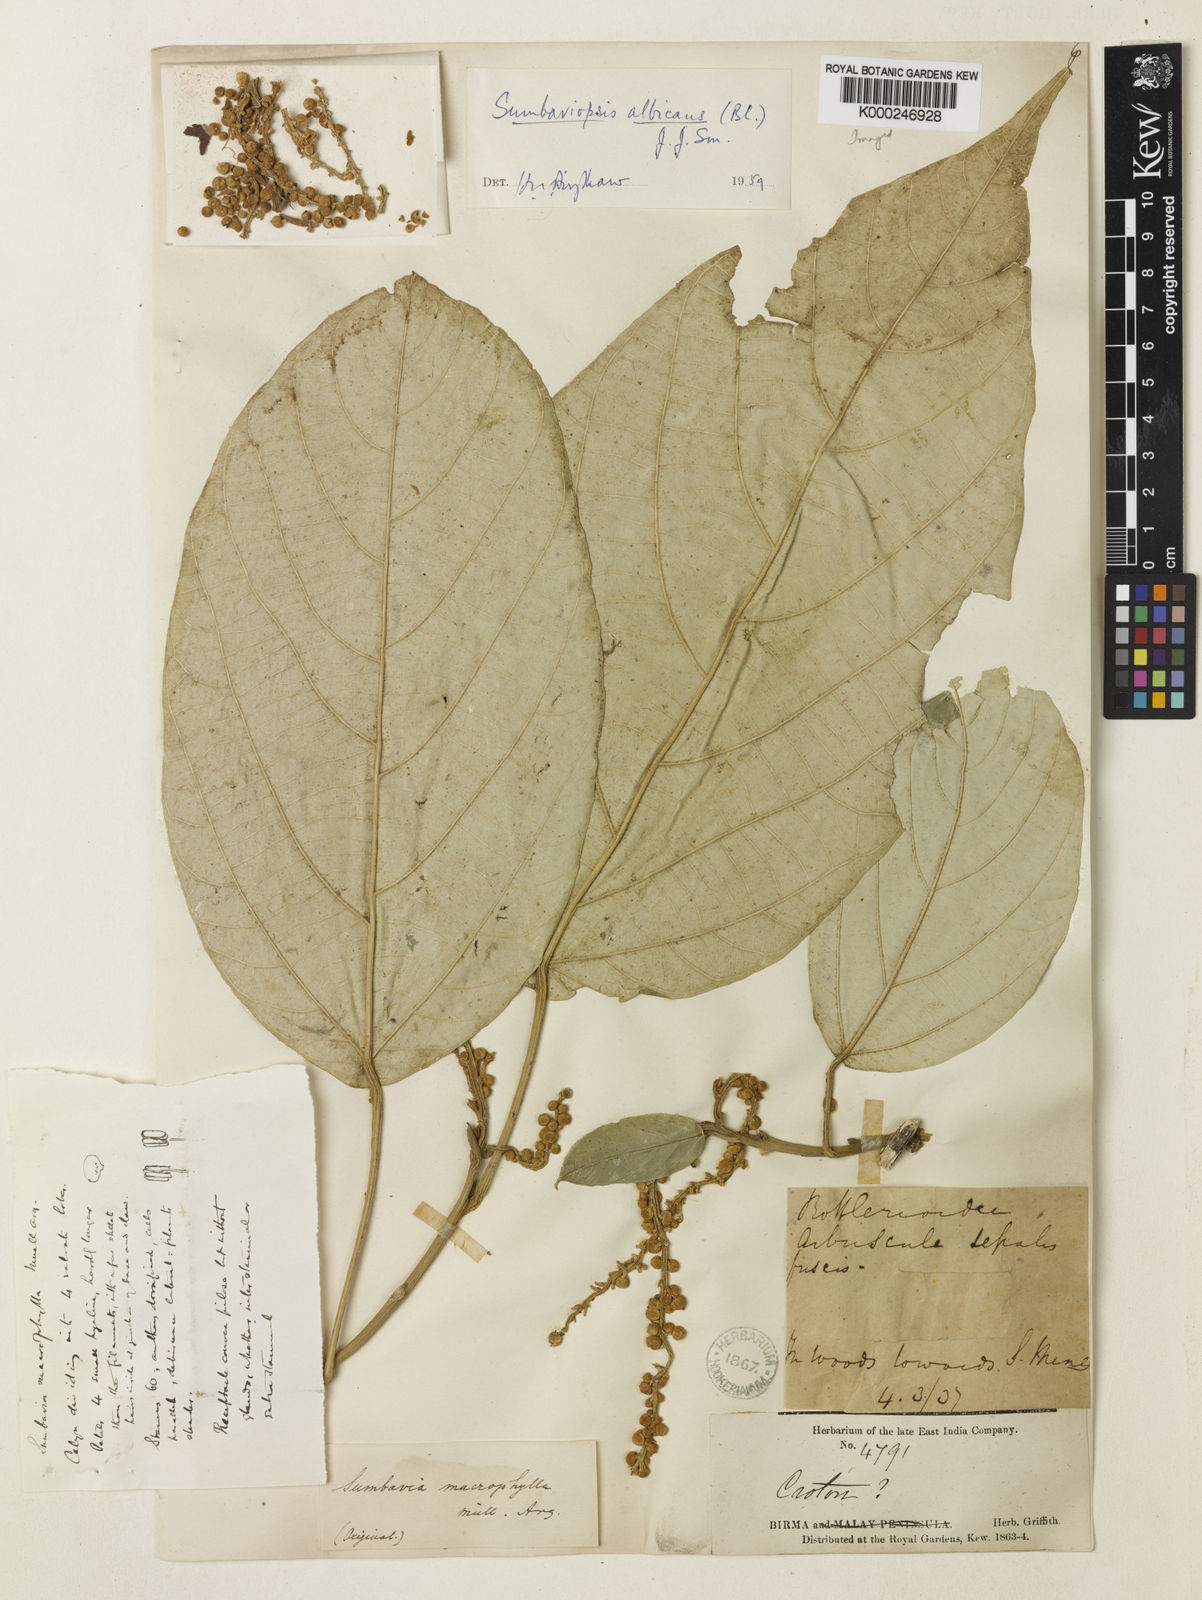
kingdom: Plantae
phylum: Tracheophyta
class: Magnoliopsida
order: Malpighiales
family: Euphorbiaceae
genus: Sumbaviopsis
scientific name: Sumbaviopsis albicans
